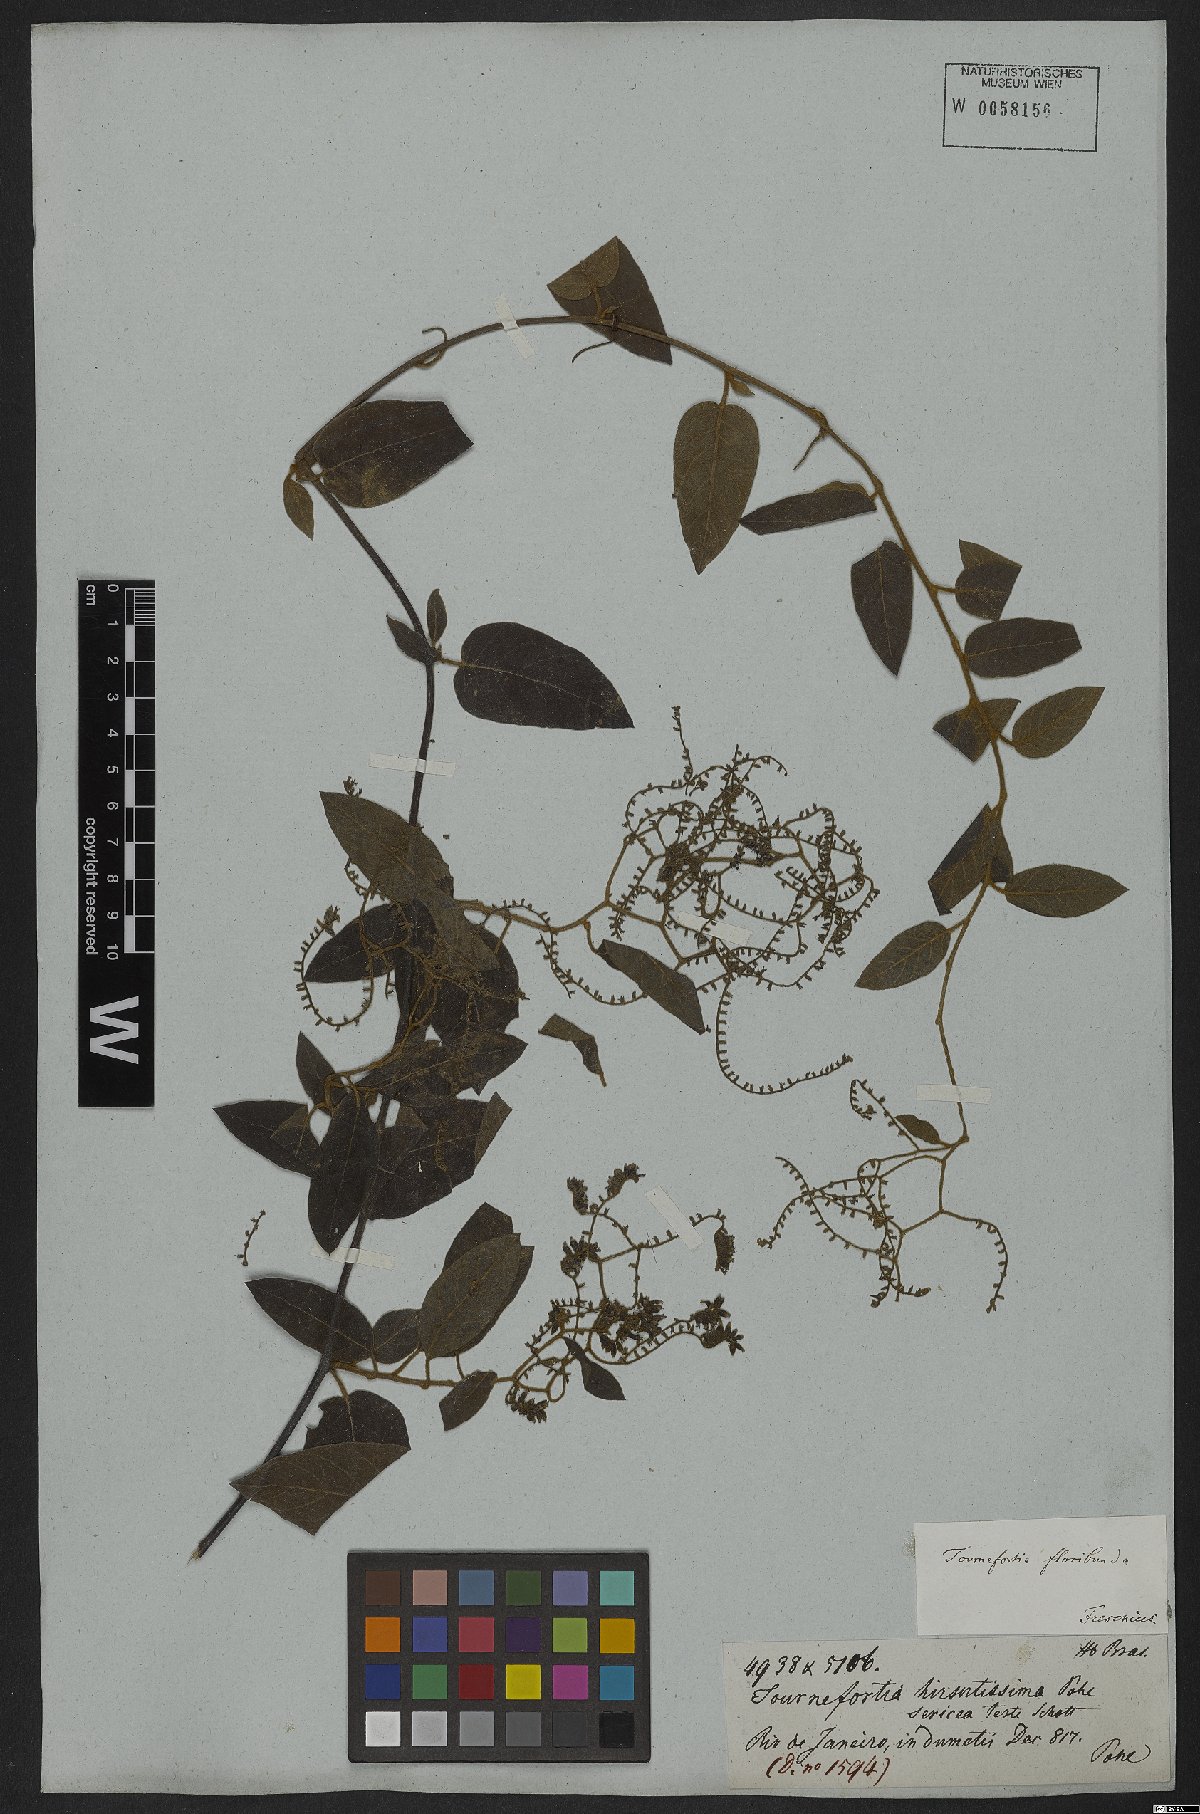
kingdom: Plantae
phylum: Tracheophyta
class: Magnoliopsida
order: Boraginales
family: Heliotropiaceae
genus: Myriopus
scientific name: Myriopus volubilis
